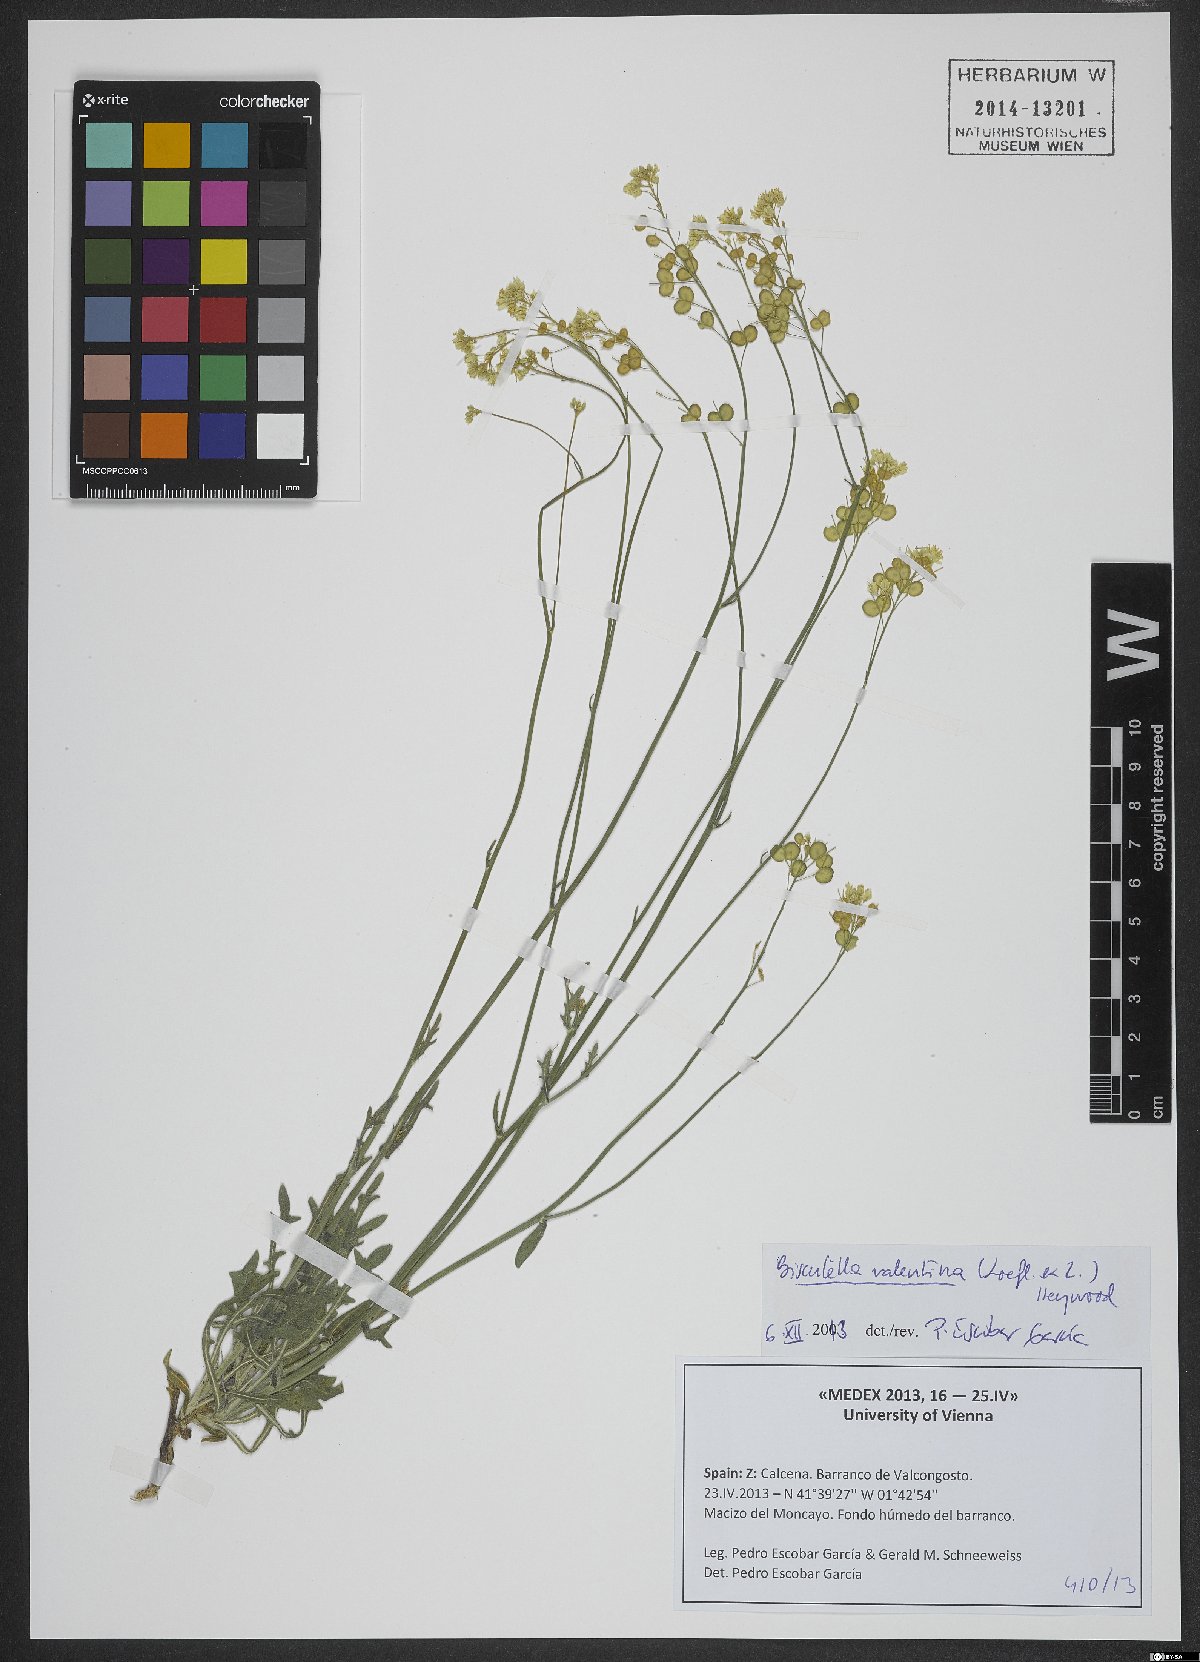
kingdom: Plantae
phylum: Tracheophyta
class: Magnoliopsida
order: Brassicales
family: Brassicaceae
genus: Biscutella
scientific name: Biscutella valentina
